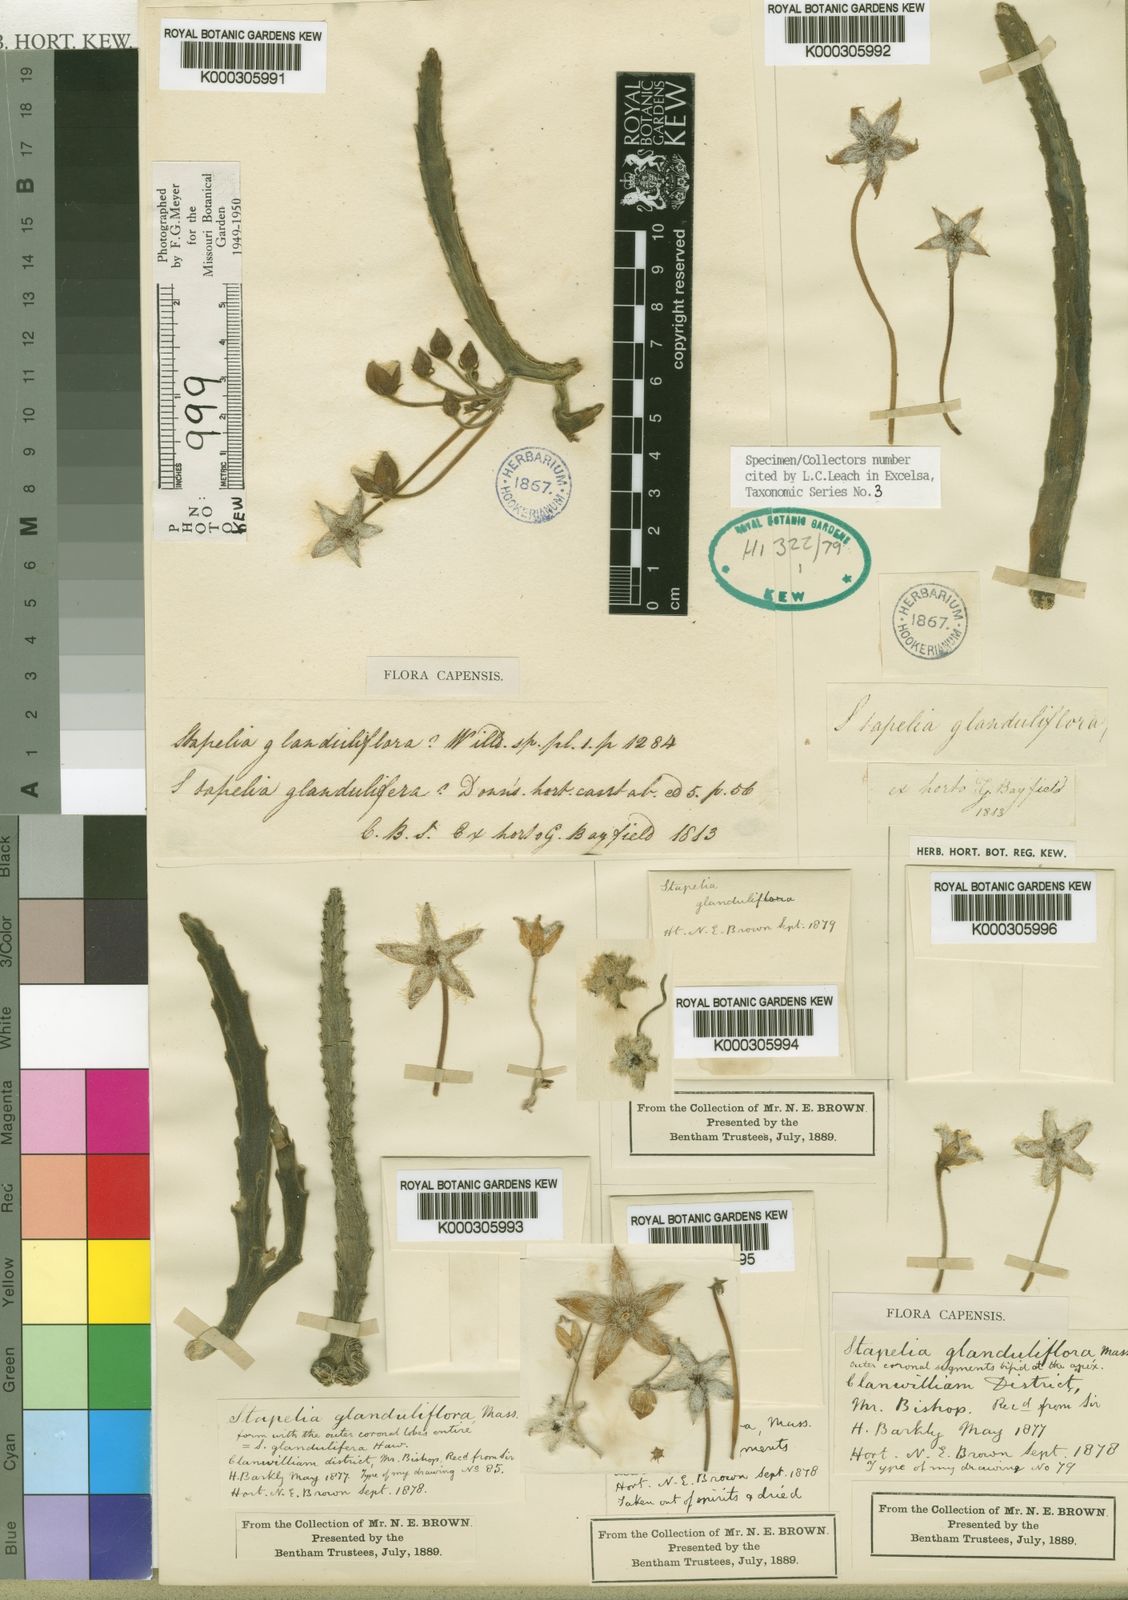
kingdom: Plantae
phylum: Tracheophyta
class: Magnoliopsida
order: Gentianales
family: Apocynaceae
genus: Ceropegia
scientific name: Ceropegia glanduliflora
